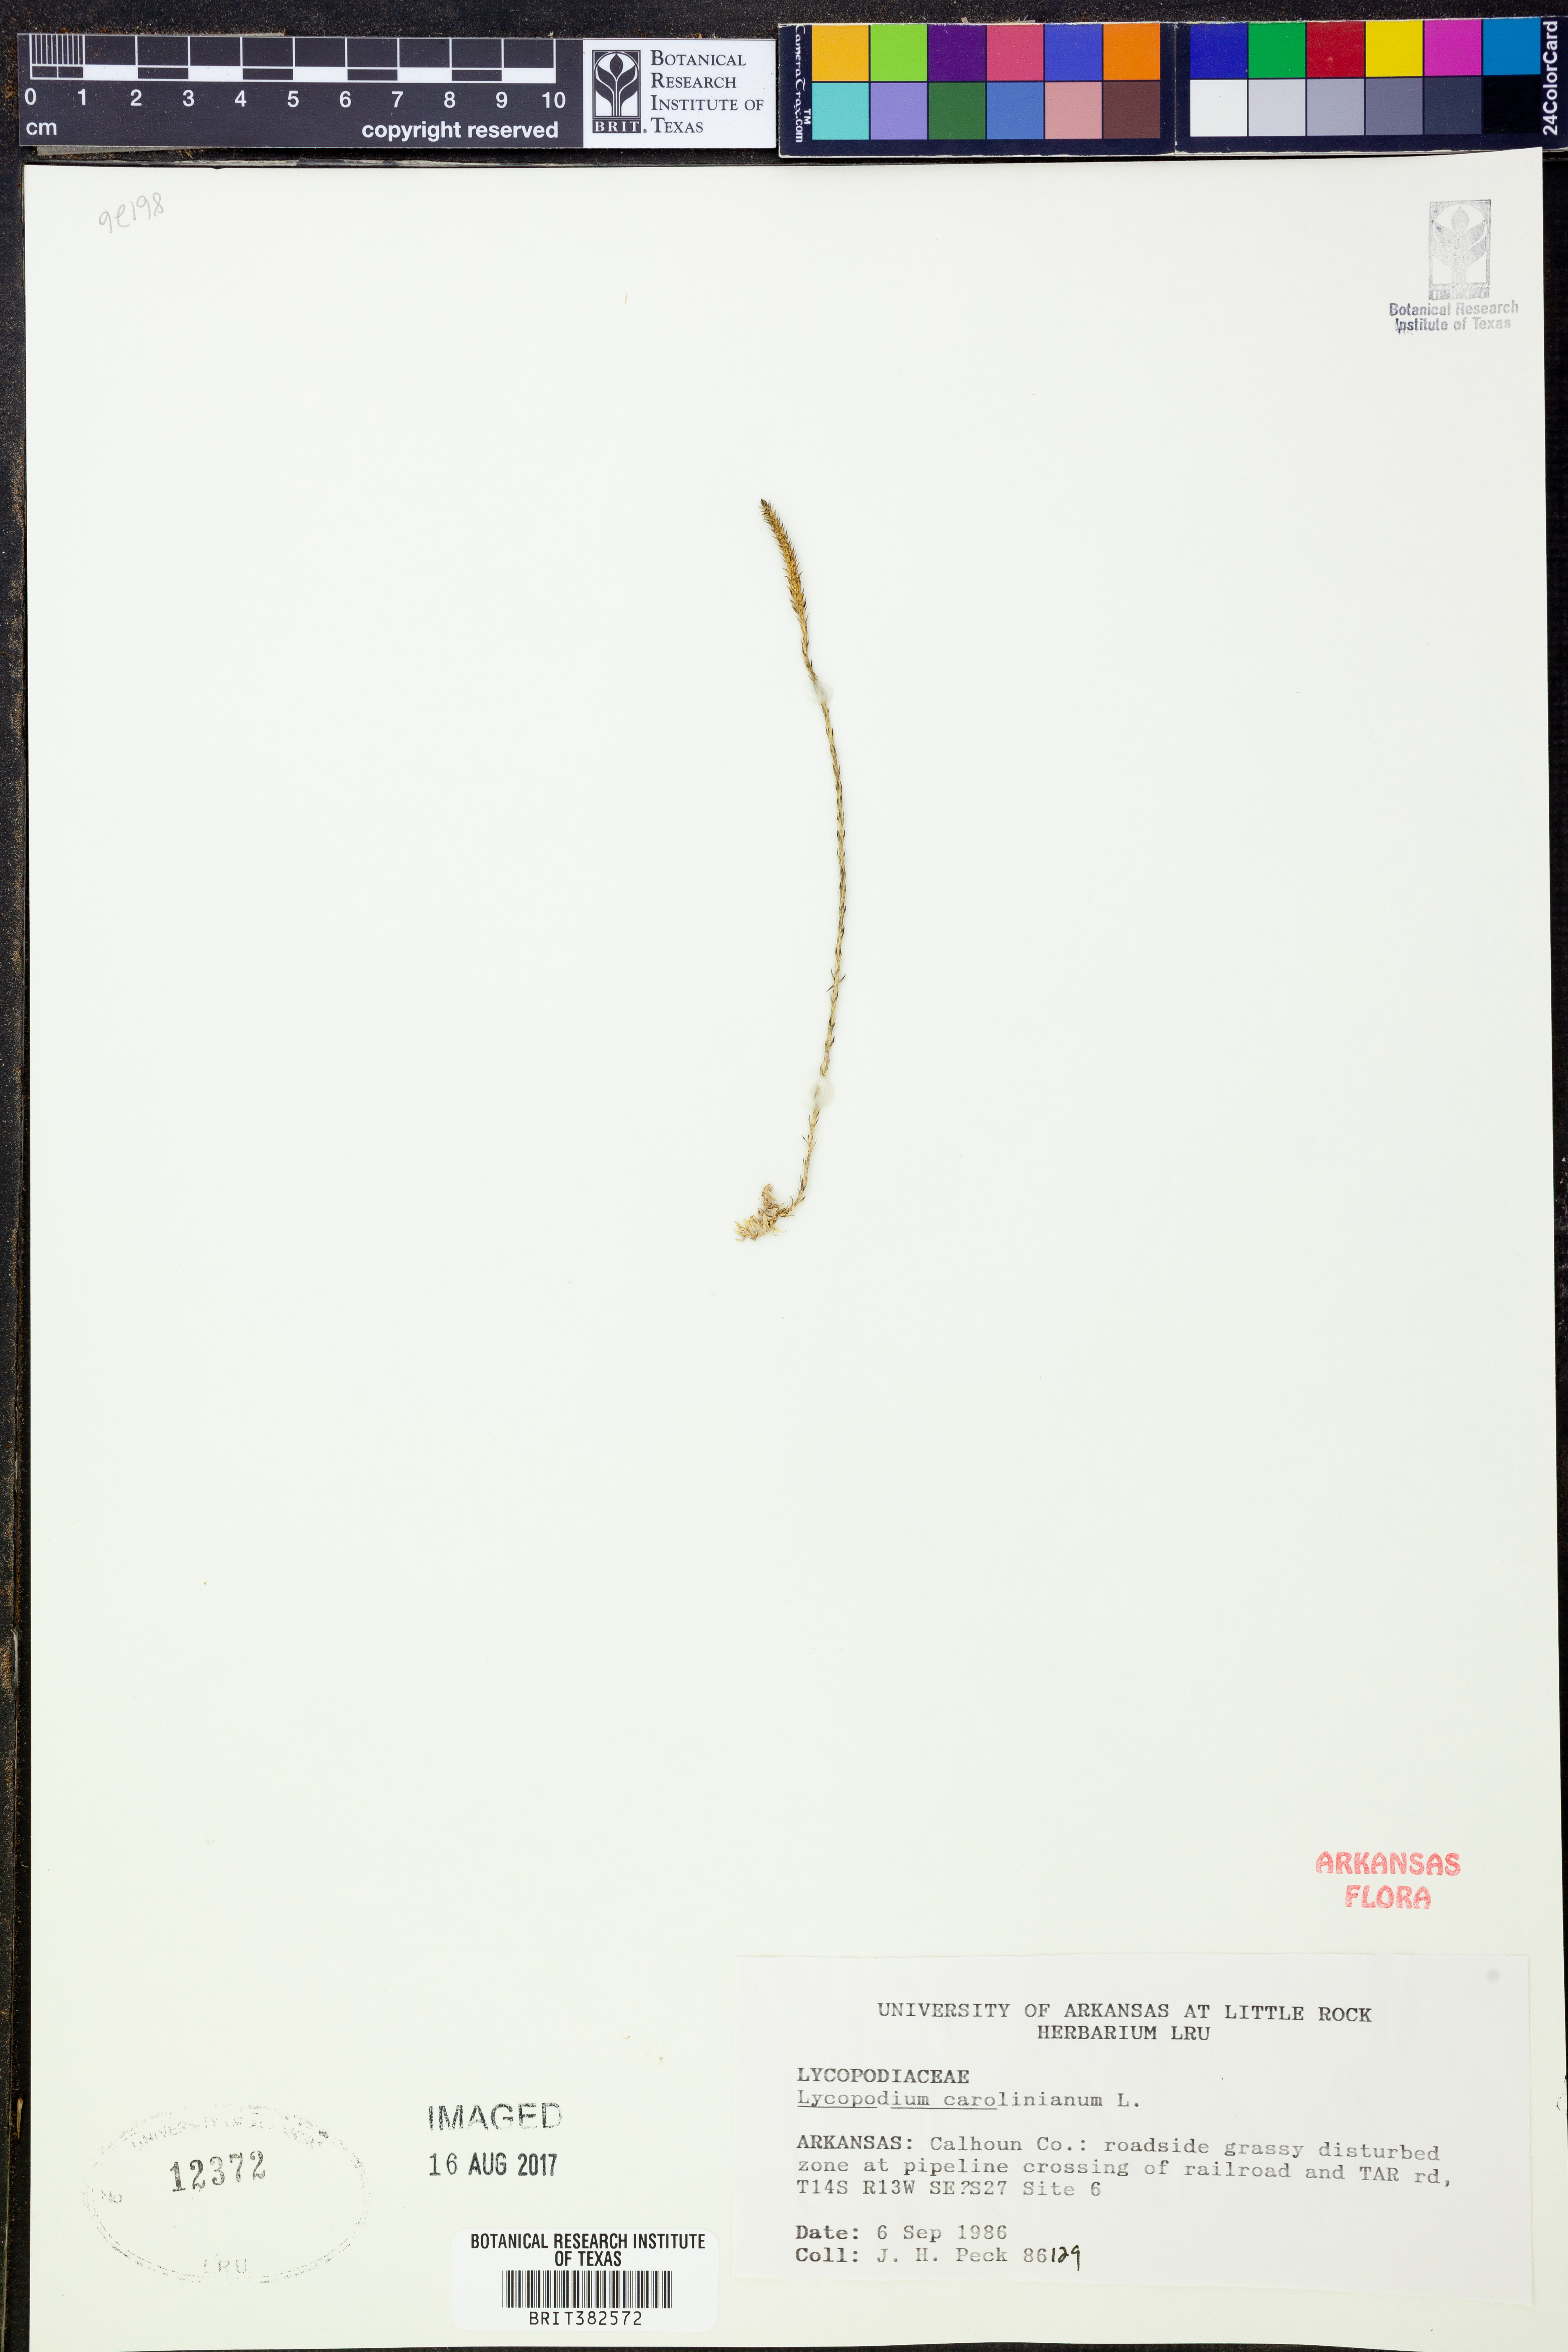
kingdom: Plantae
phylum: Tracheophyta
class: Lycopodiopsida
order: Lycopodiales
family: Lycopodiaceae
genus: Pseudolycopodiella
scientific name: Pseudolycopodiella caroliniana
